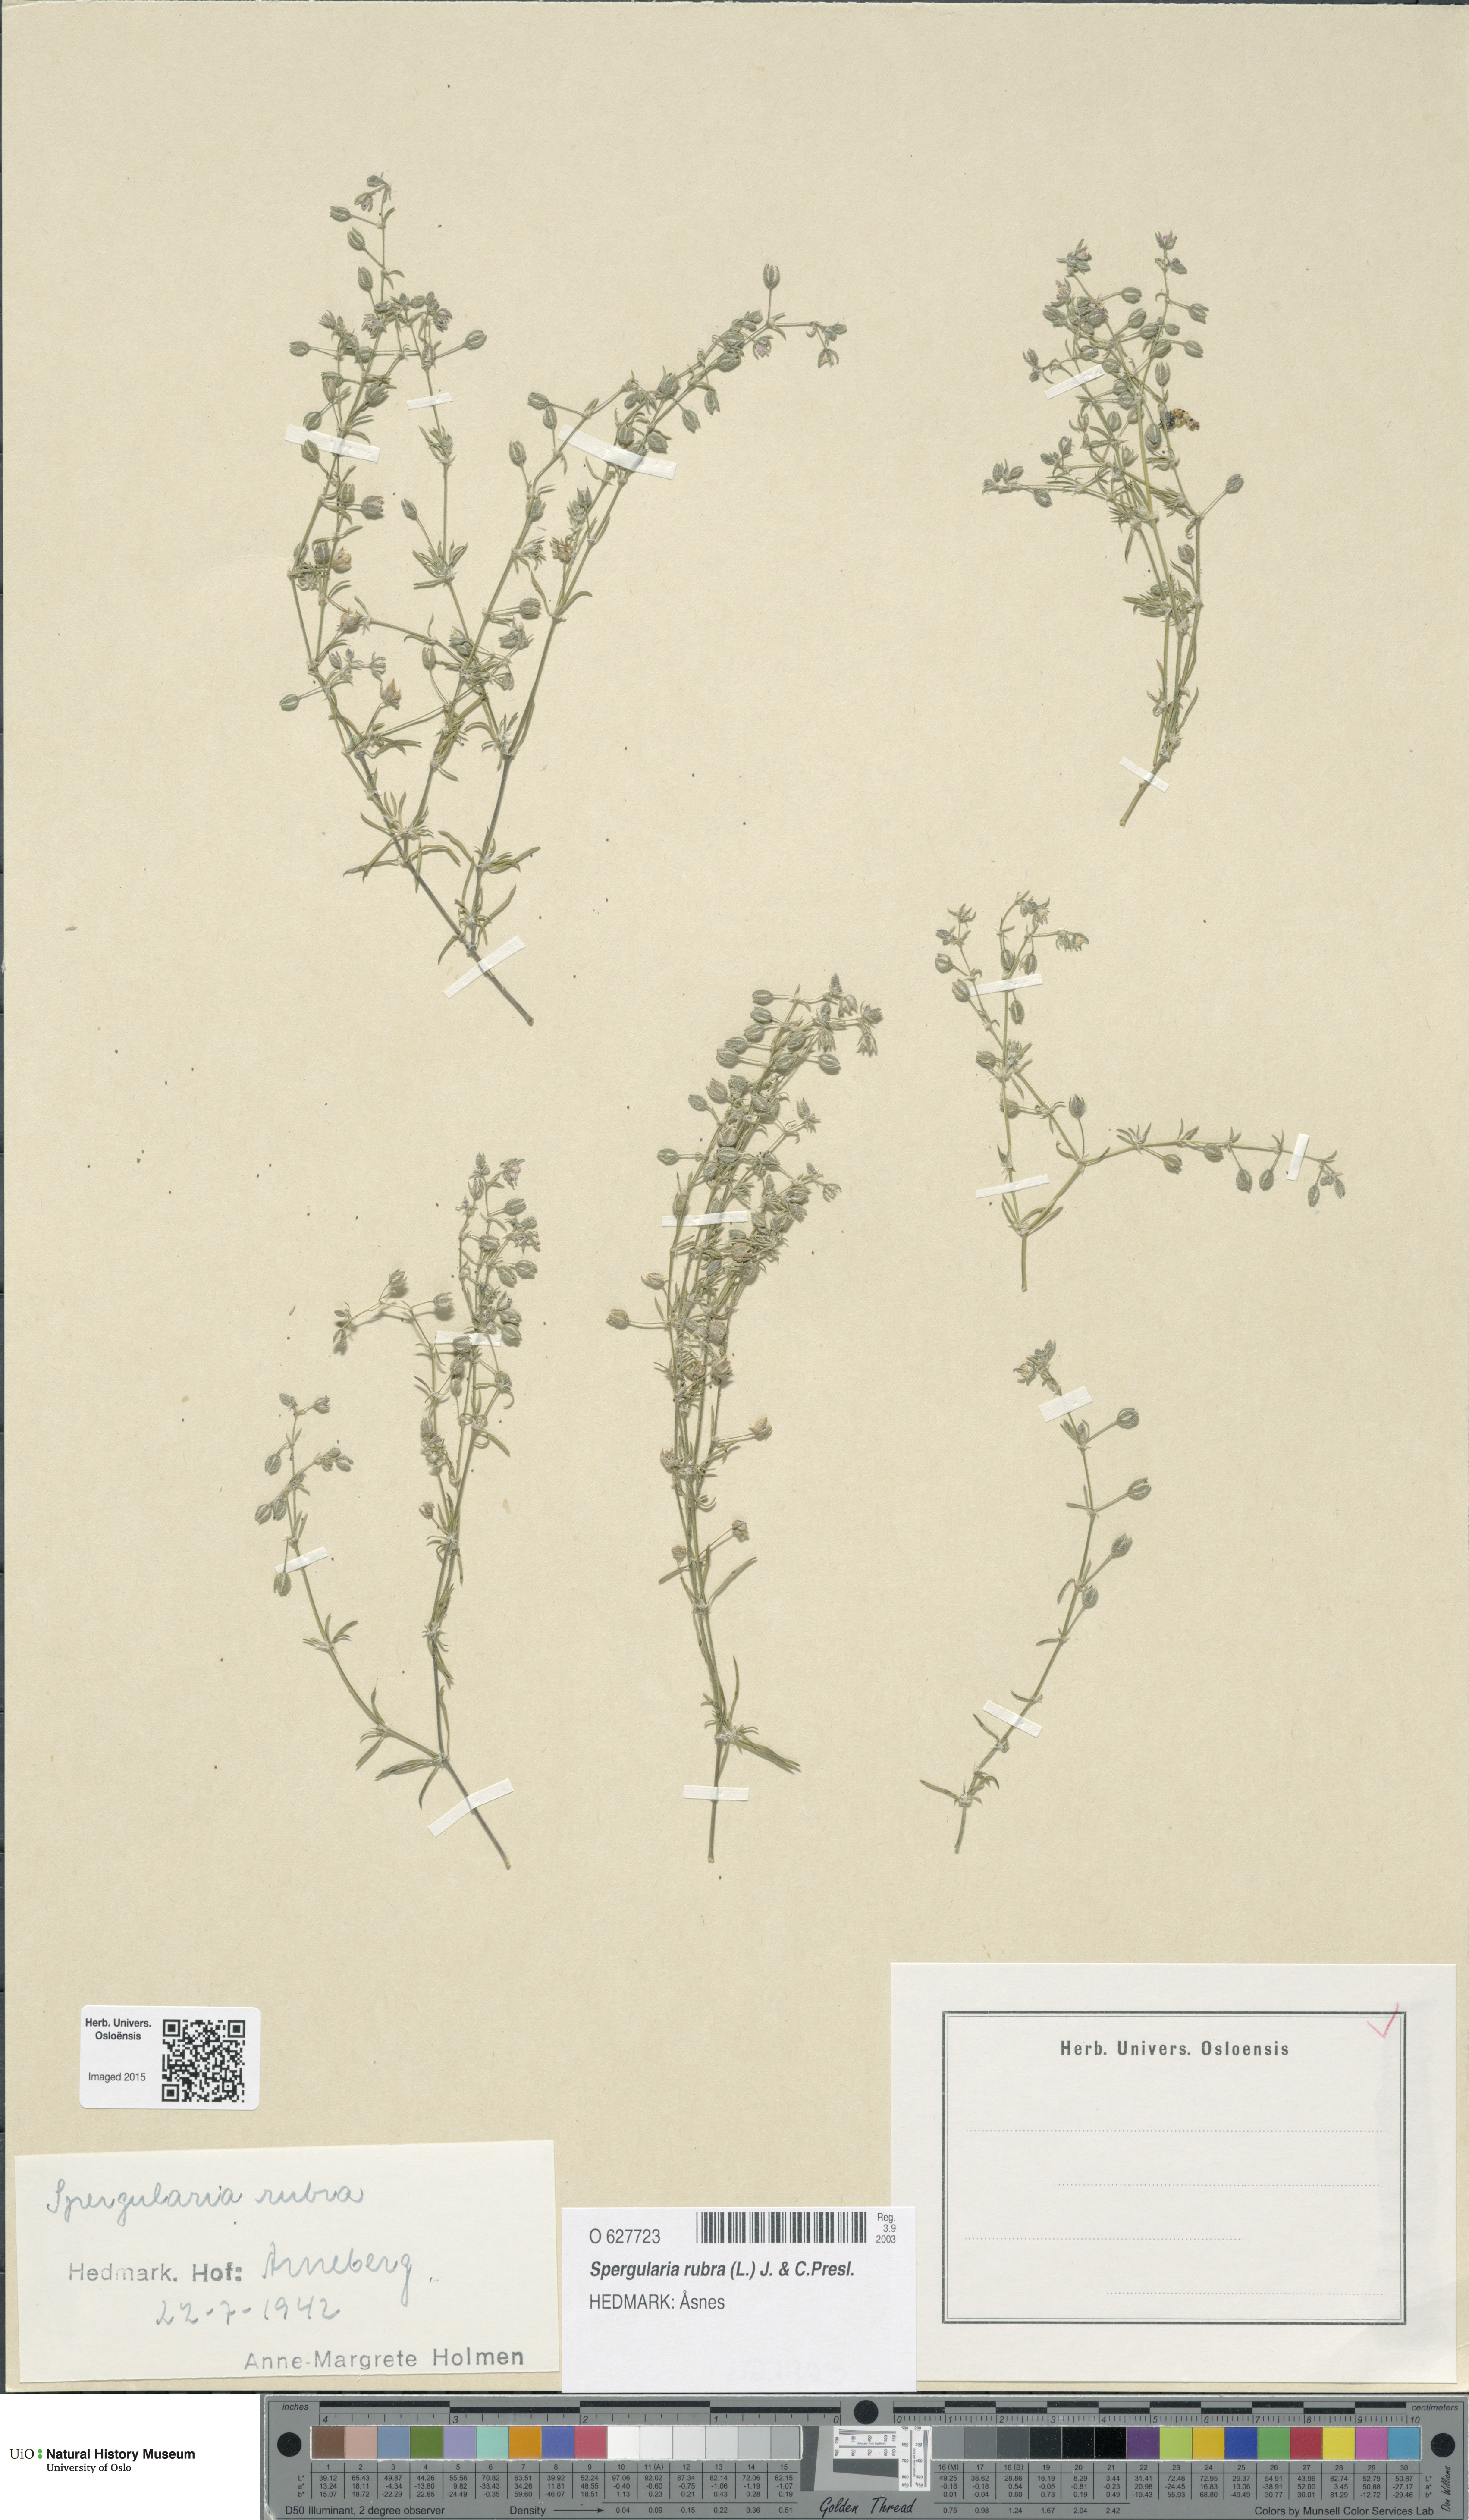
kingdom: Plantae
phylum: Tracheophyta
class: Magnoliopsida
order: Caryophyllales
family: Caryophyllaceae
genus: Spergularia
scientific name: Spergularia rubra
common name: Red sand-spurrey
